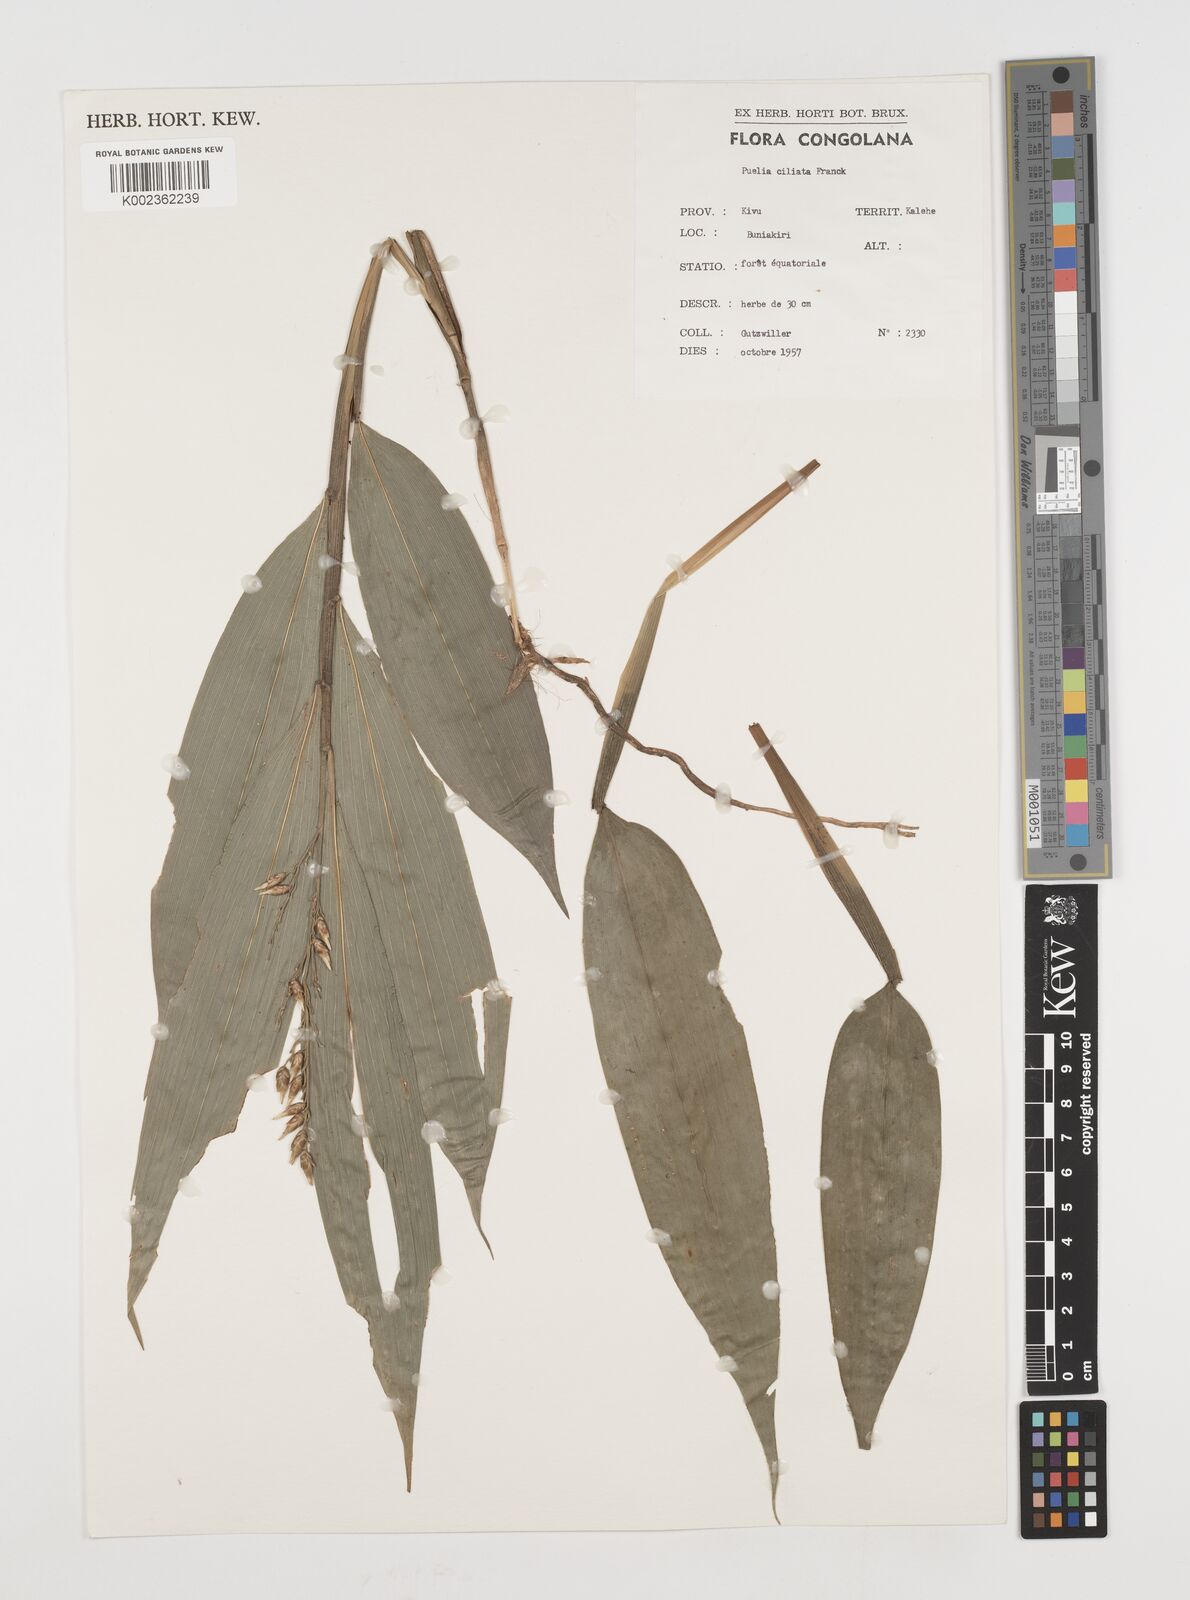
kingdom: Plantae
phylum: Tracheophyta
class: Liliopsida
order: Poales
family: Poaceae
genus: Puelia
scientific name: Puelia coriacea
